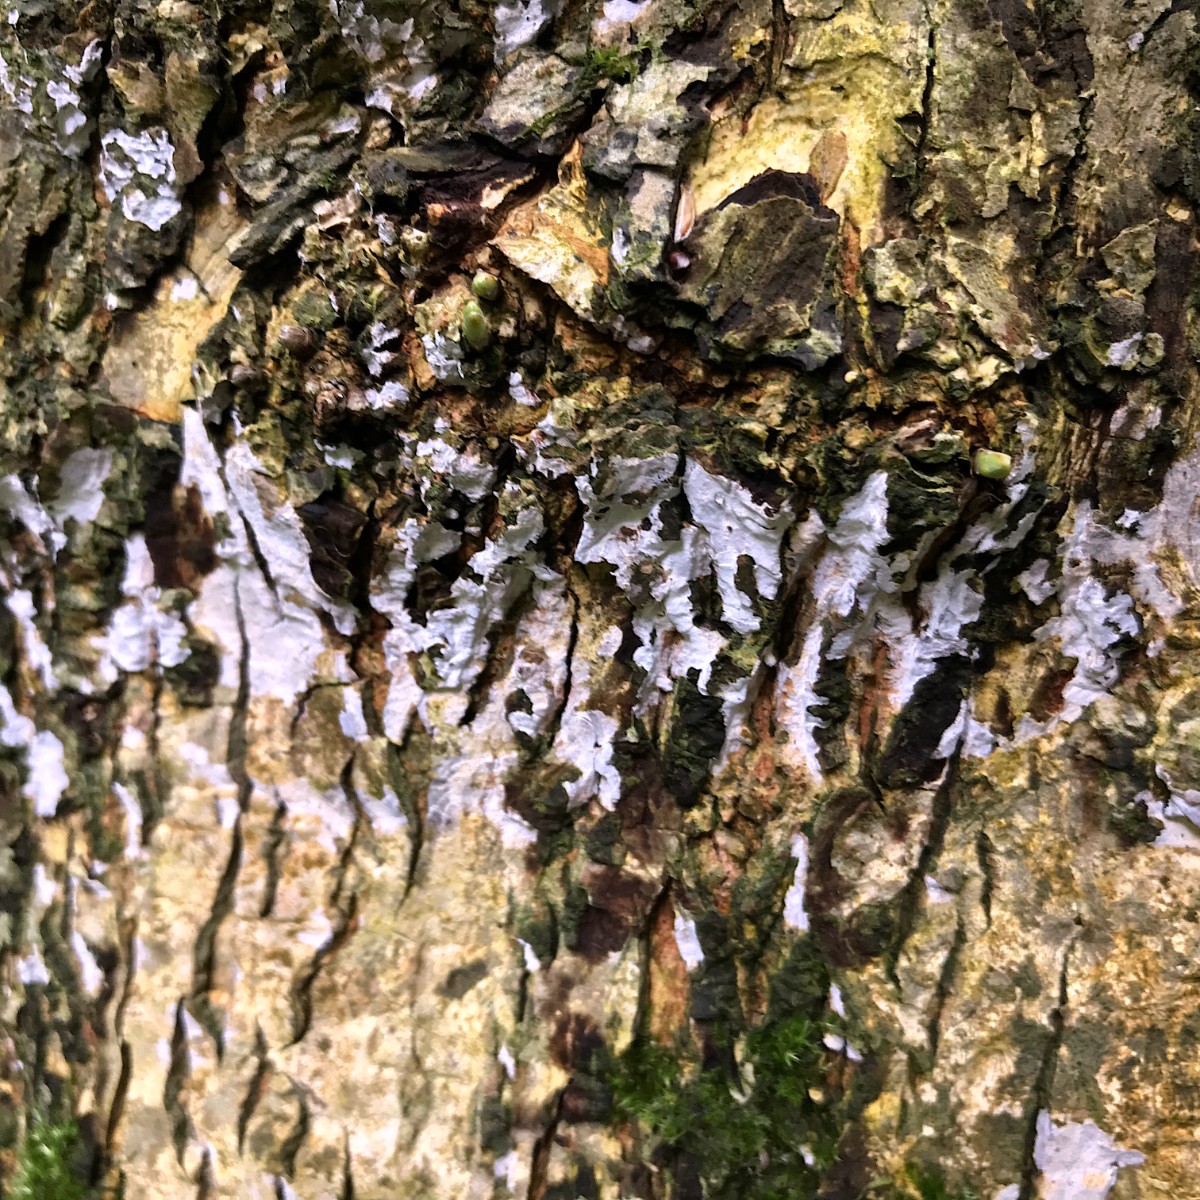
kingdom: Fungi
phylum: Basidiomycota
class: Agaricomycetes
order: Agaricales
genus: Dendrothele
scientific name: Dendrothele acerina
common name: navr-kalkplet
